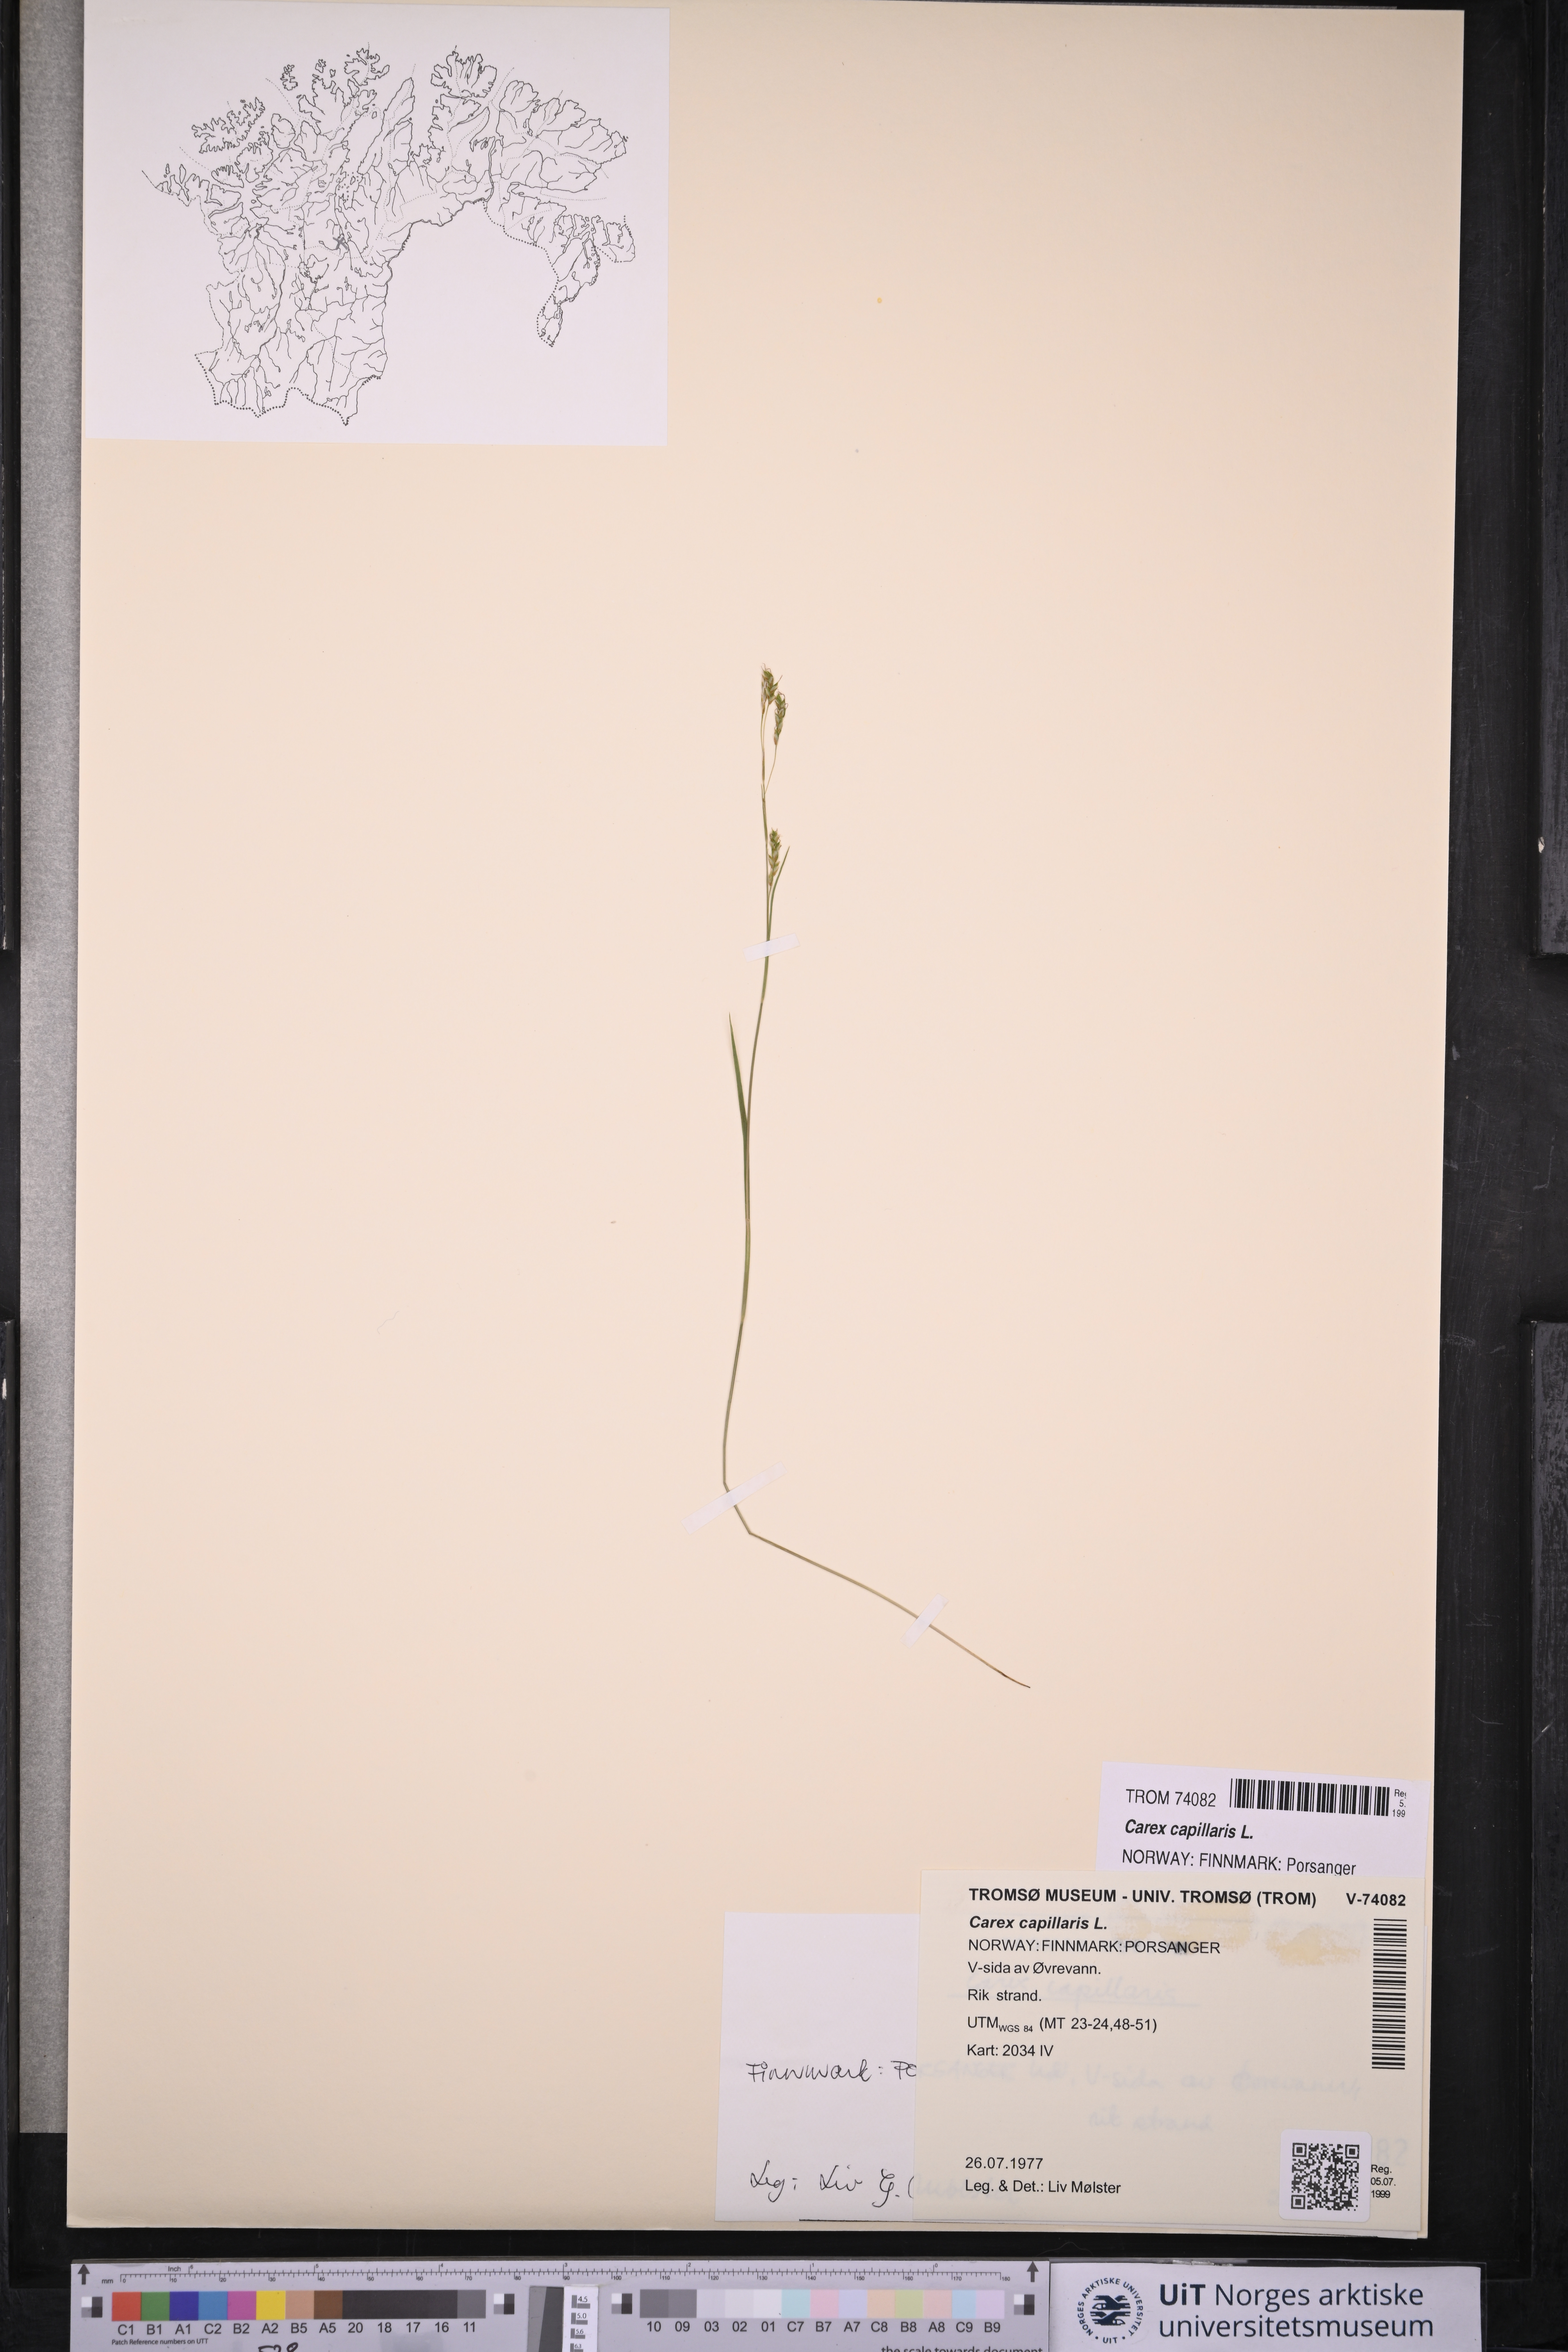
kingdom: Plantae
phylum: Tracheophyta
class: Liliopsida
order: Poales
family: Cyperaceae
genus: Carex
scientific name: Carex capillaris
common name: Hair sedge
